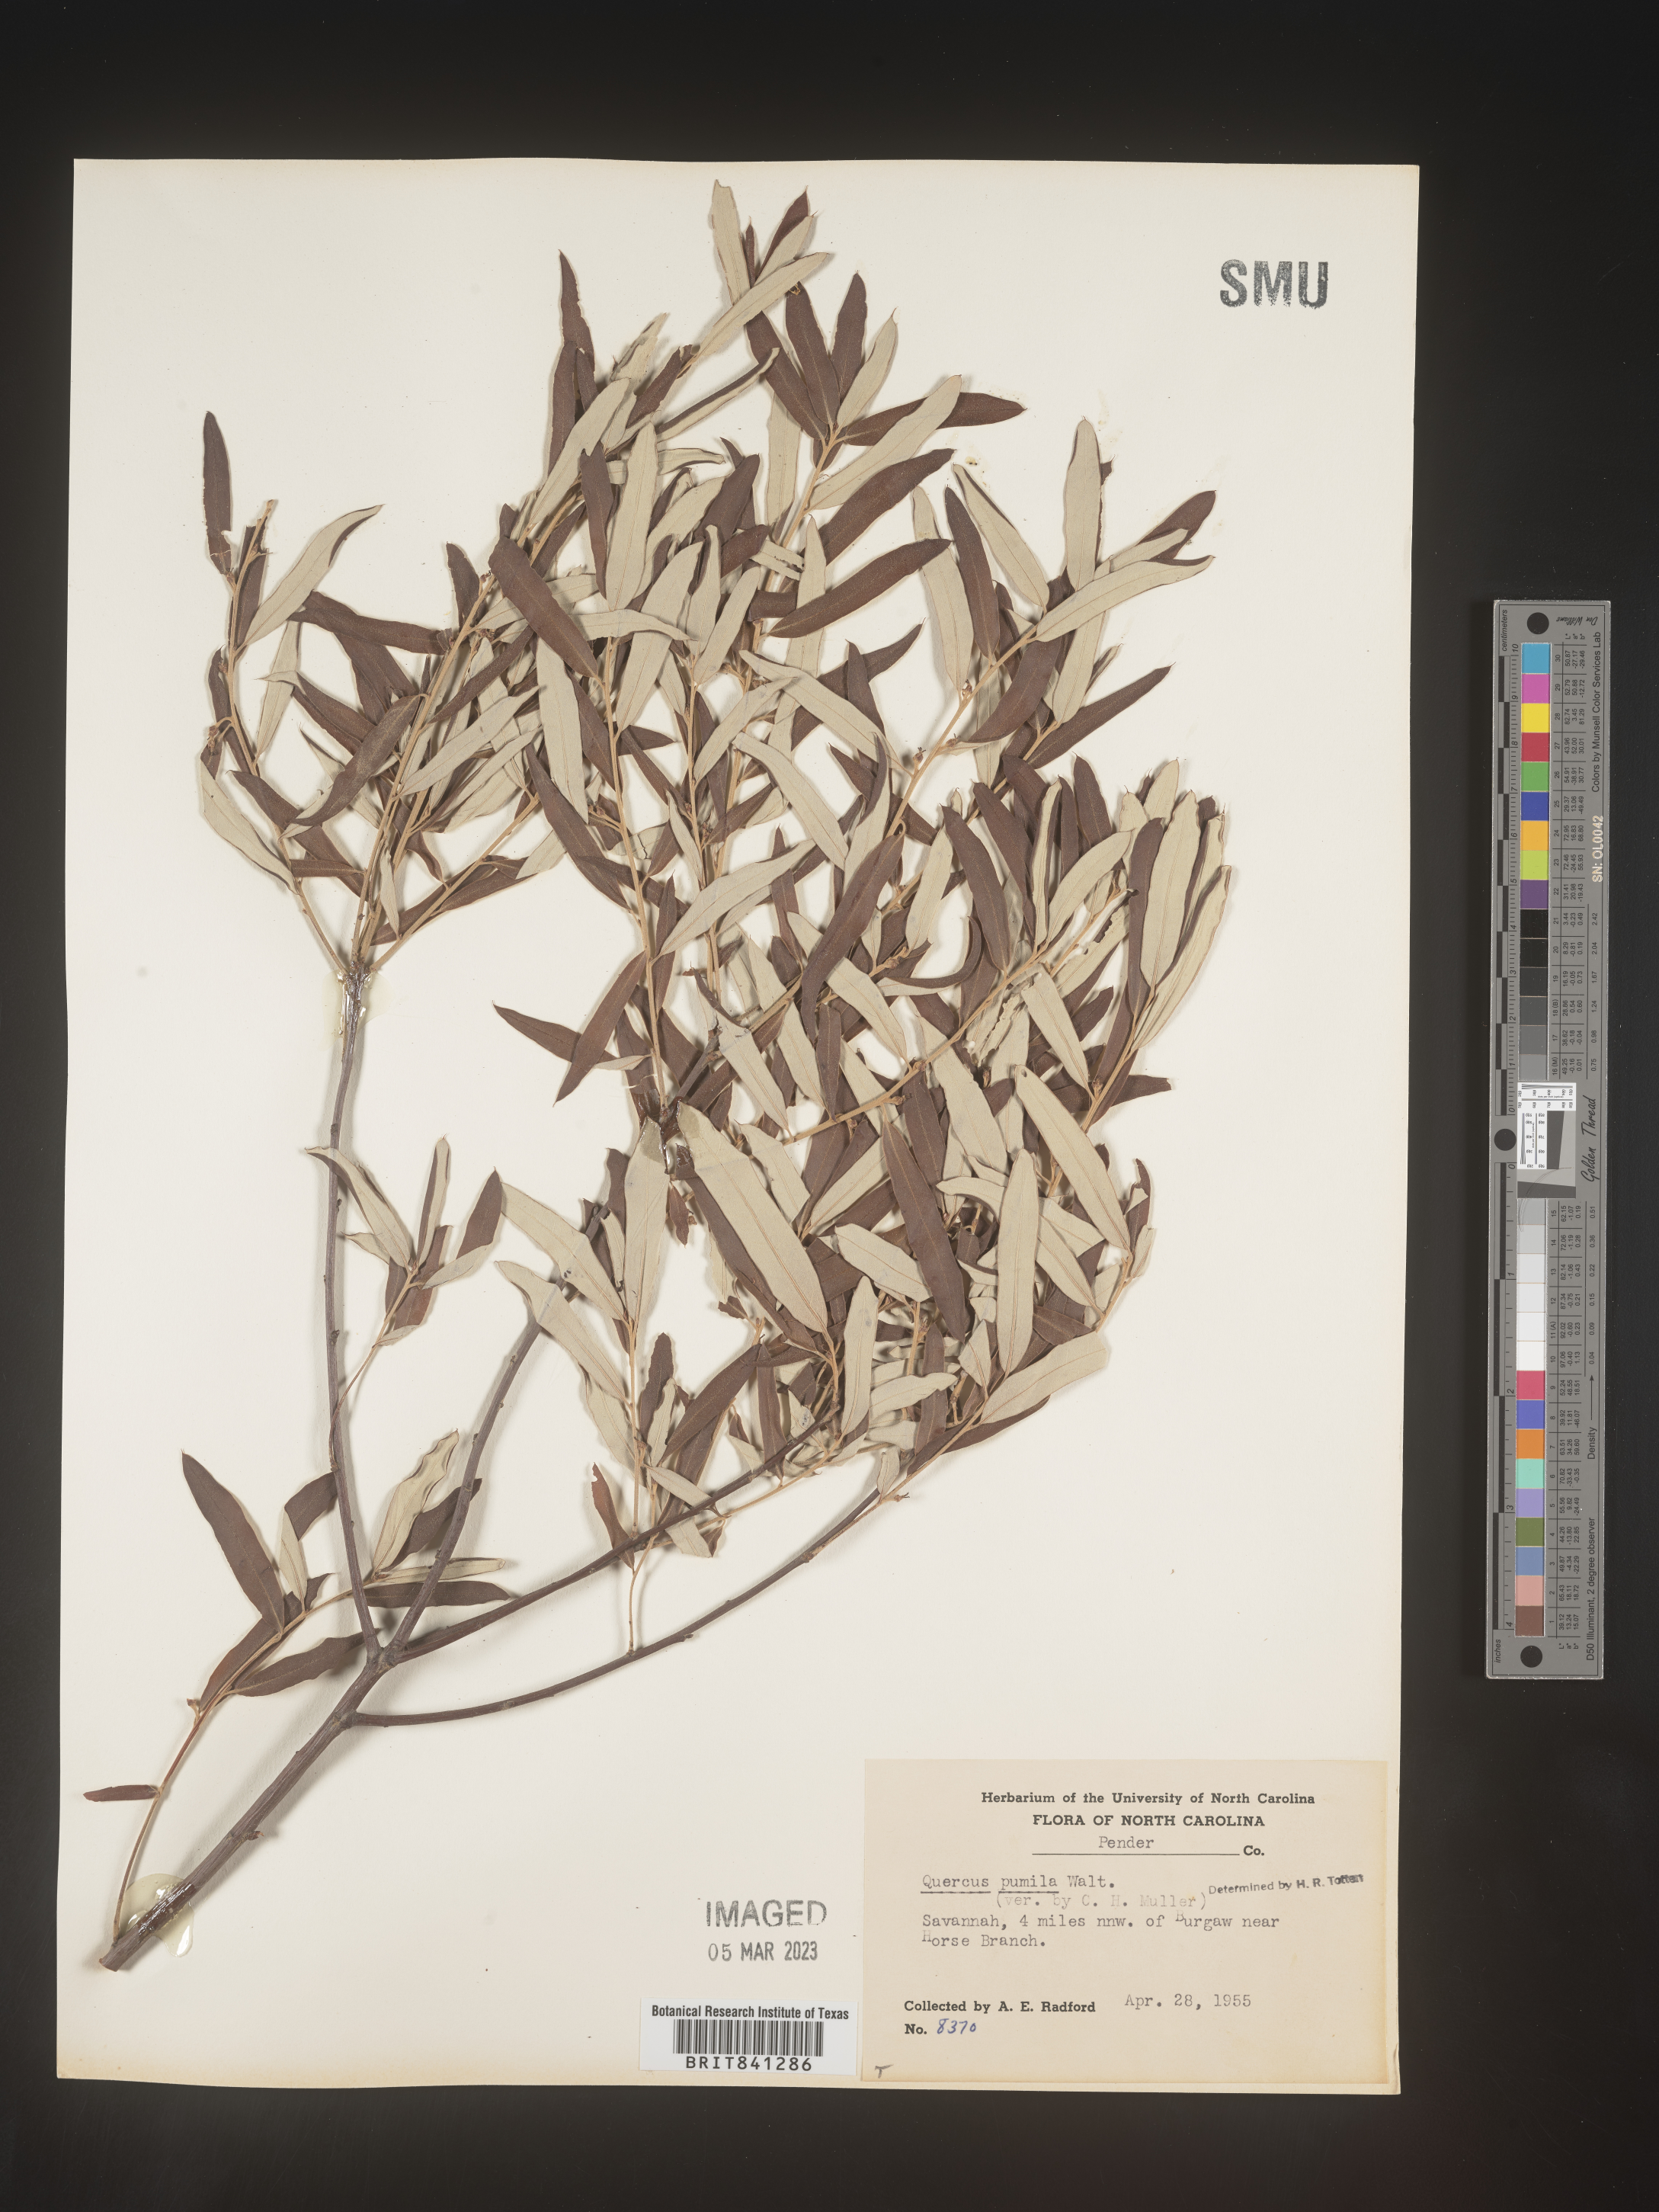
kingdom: Plantae
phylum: Tracheophyta
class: Magnoliopsida
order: Fagales
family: Fagaceae
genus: Quercus
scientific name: Quercus pumila
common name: Runner oak
